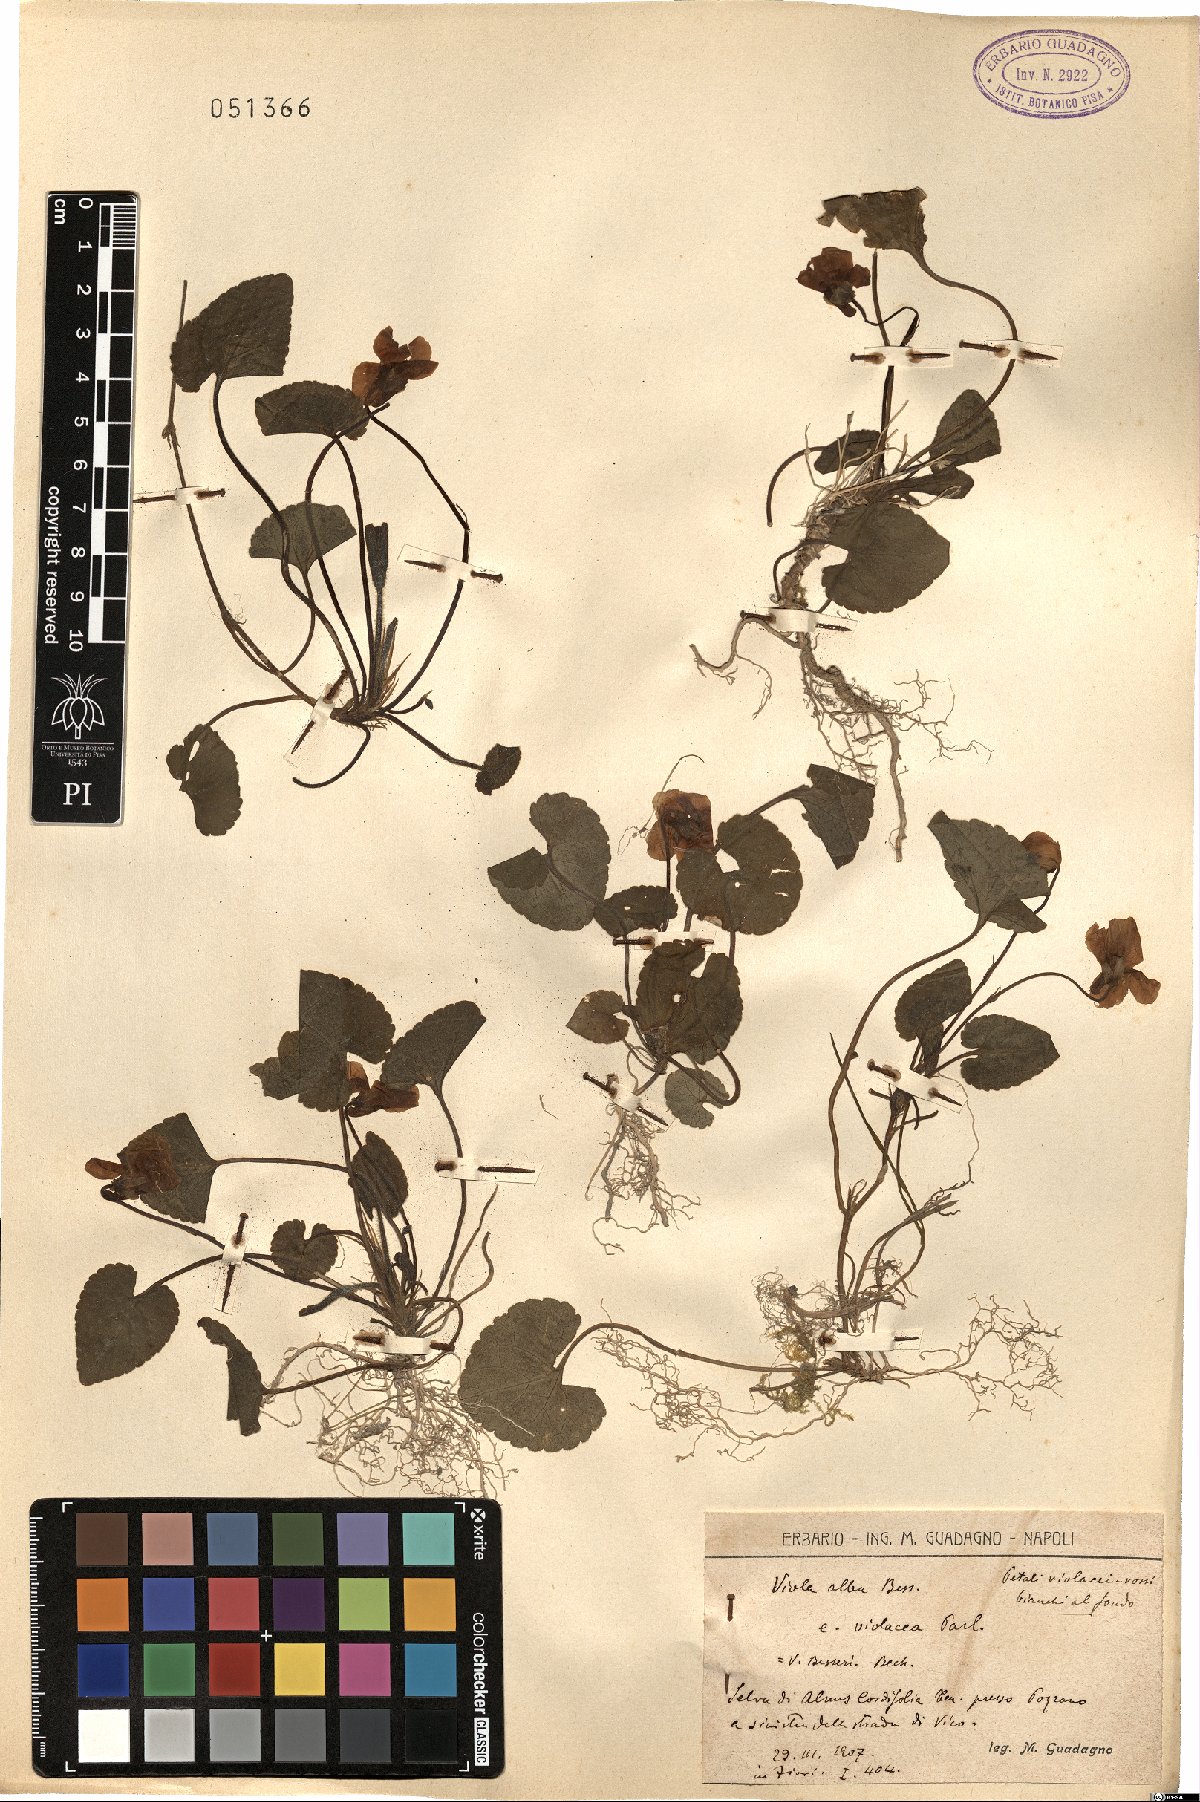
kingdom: Plantae
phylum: Tracheophyta
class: Magnoliopsida
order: Malpighiales
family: Violaceae
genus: Viola
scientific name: Viola alba
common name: White violet
